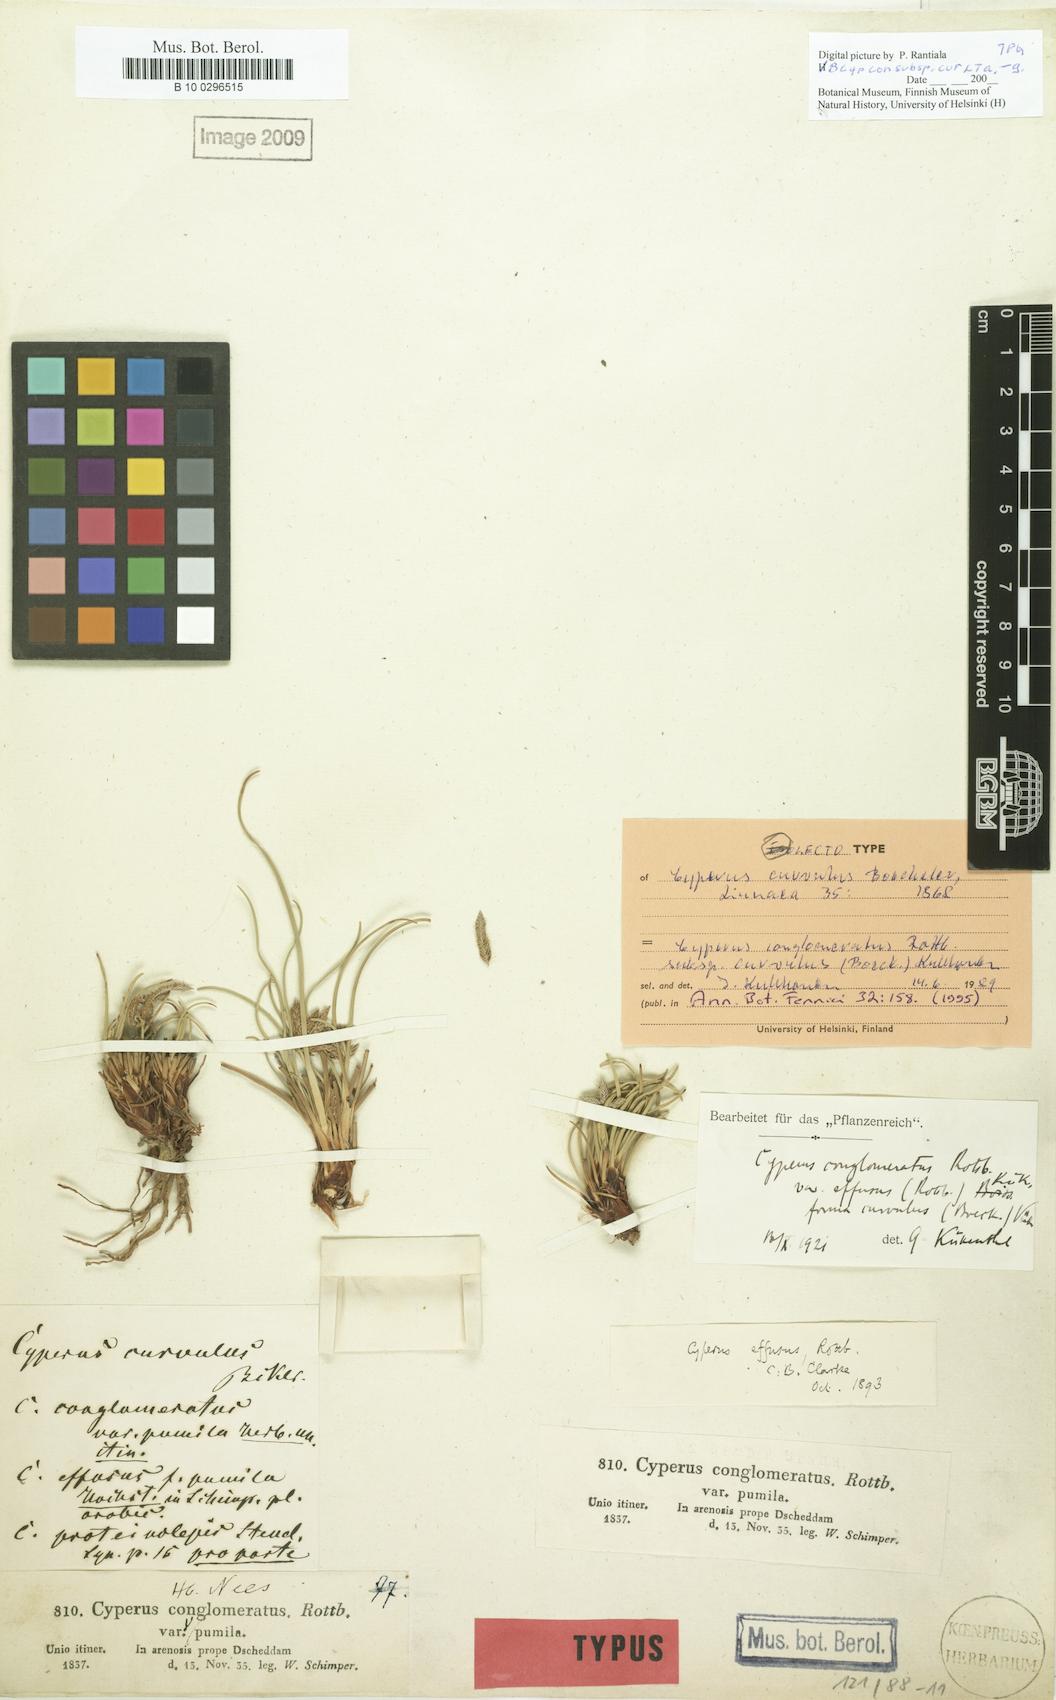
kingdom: Plantae
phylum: Tracheophyta
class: Liliopsida
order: Poales
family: Cyperaceae
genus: Cyperus
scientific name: Cyperus conglomeratus
